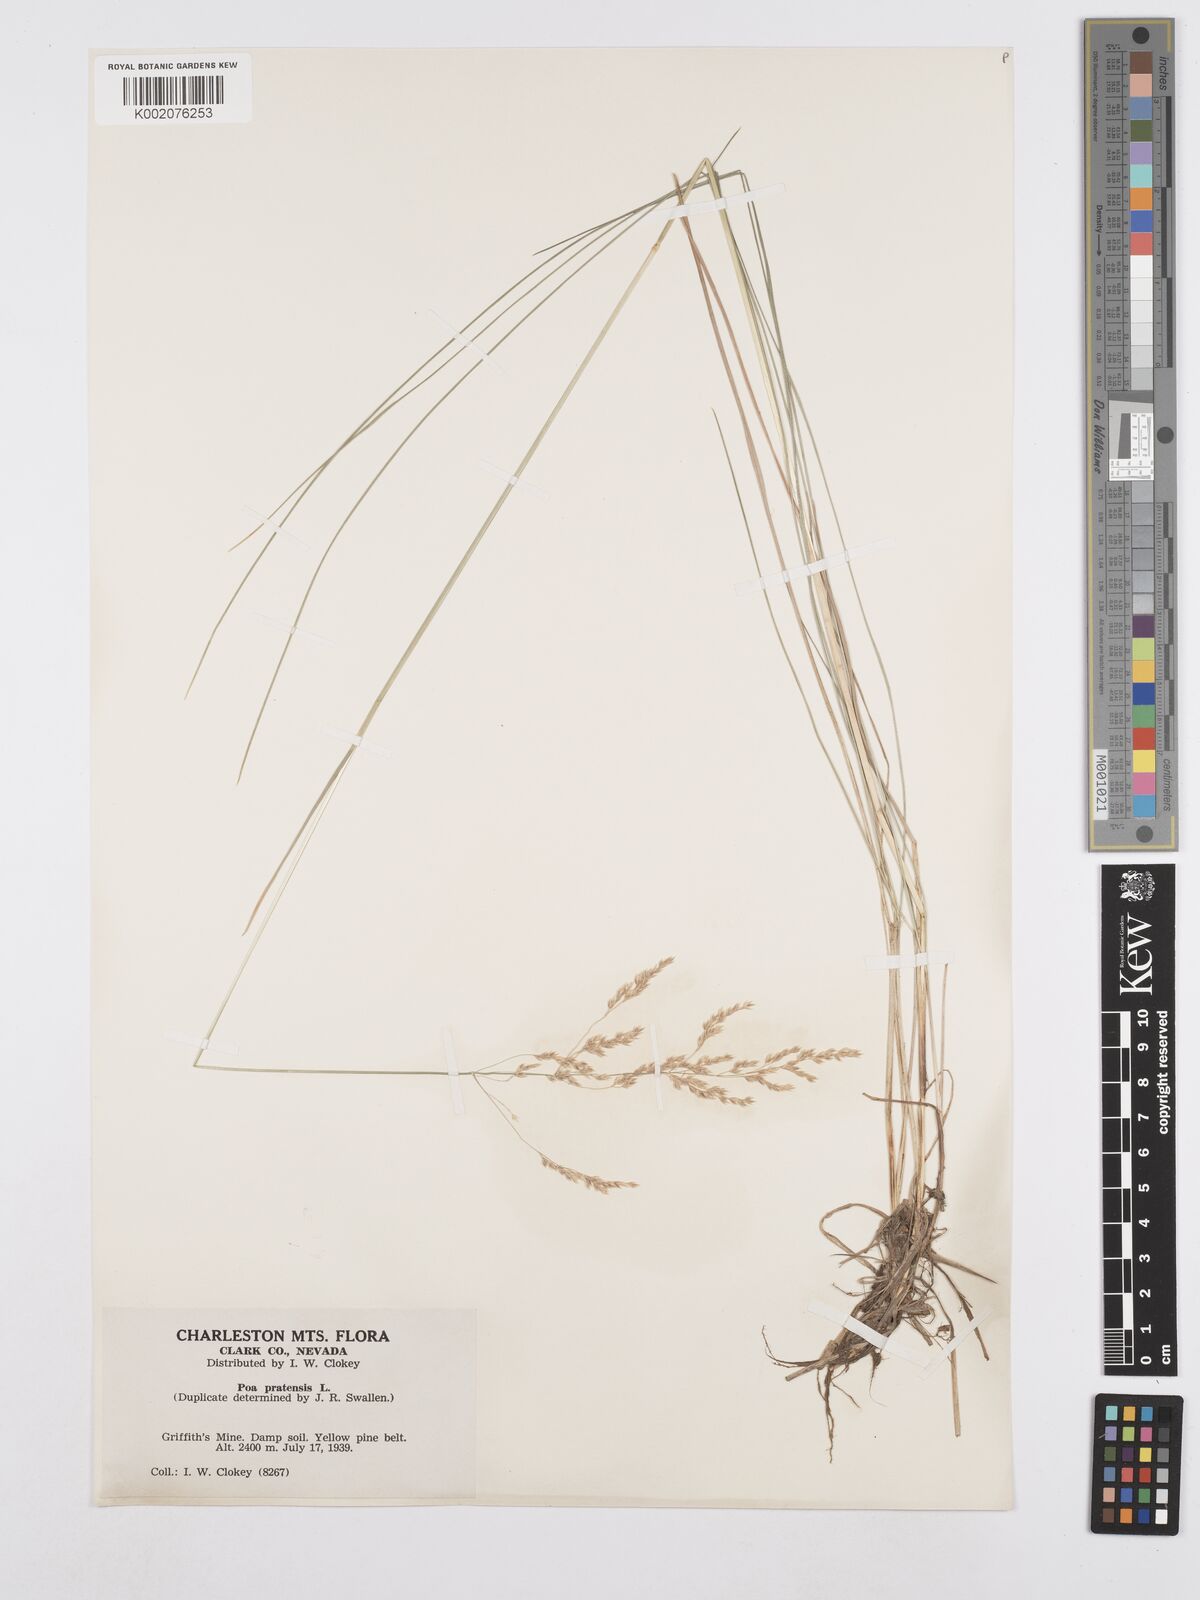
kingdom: Plantae
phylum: Tracheophyta
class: Liliopsida
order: Poales
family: Poaceae
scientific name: Poaceae
